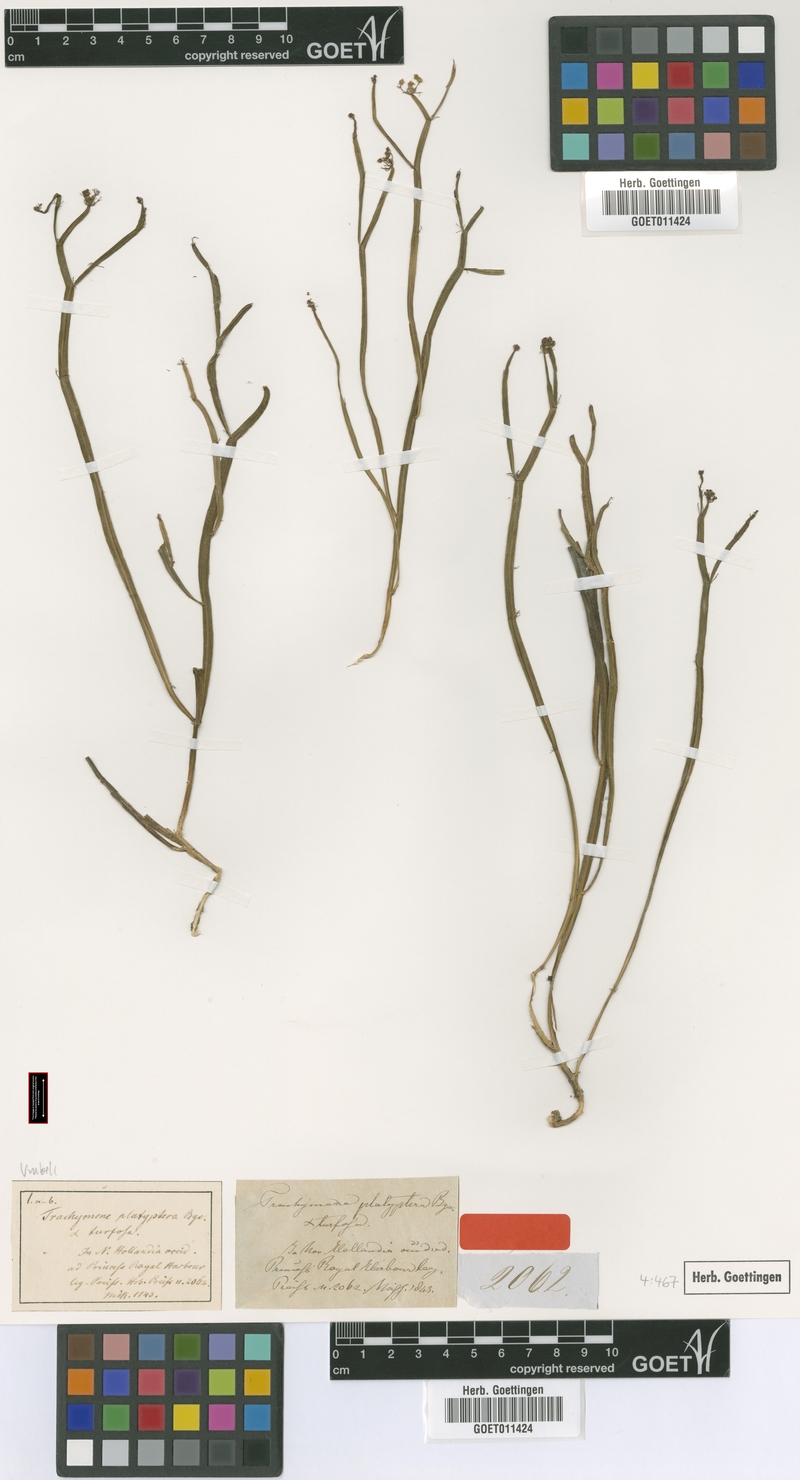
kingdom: Plantae
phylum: Tracheophyta
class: Magnoliopsida
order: Apiales
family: Apiaceae
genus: Platysace
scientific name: Platysace compressa
